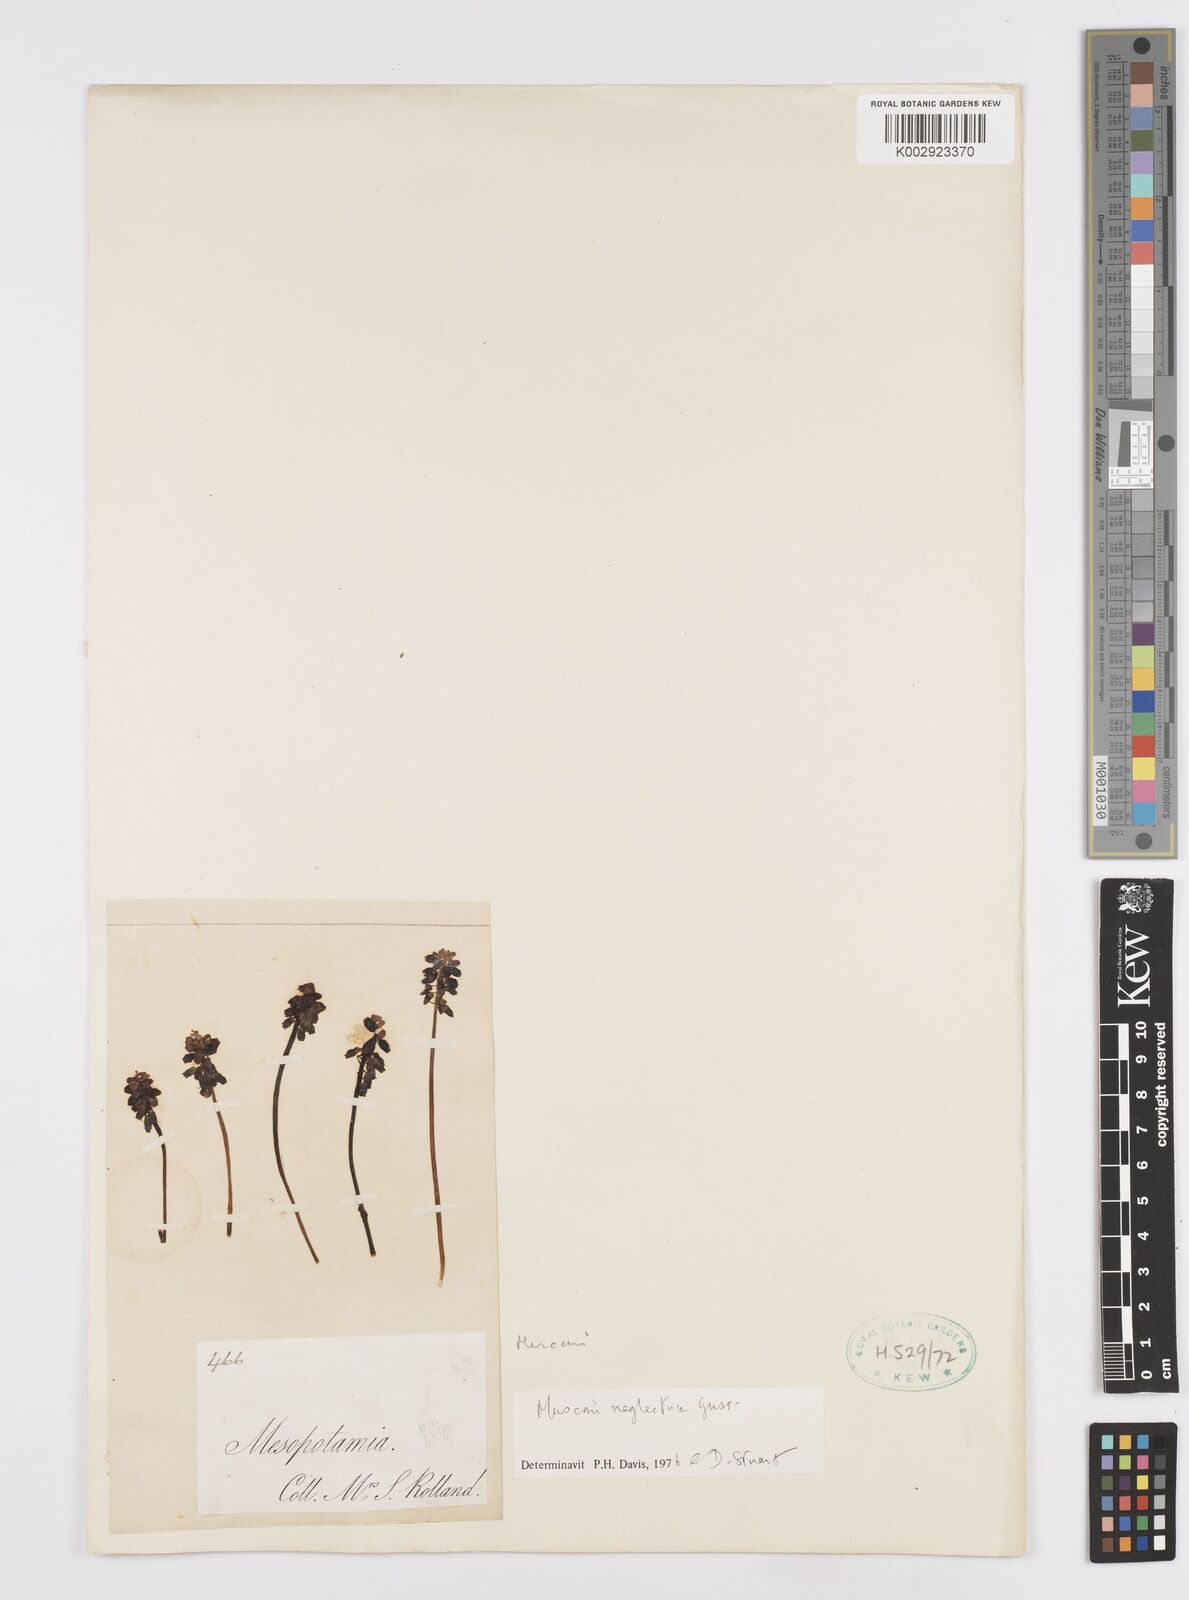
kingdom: Plantae
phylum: Tracheophyta
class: Liliopsida
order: Asparagales
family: Asparagaceae
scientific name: Asparagaceae
